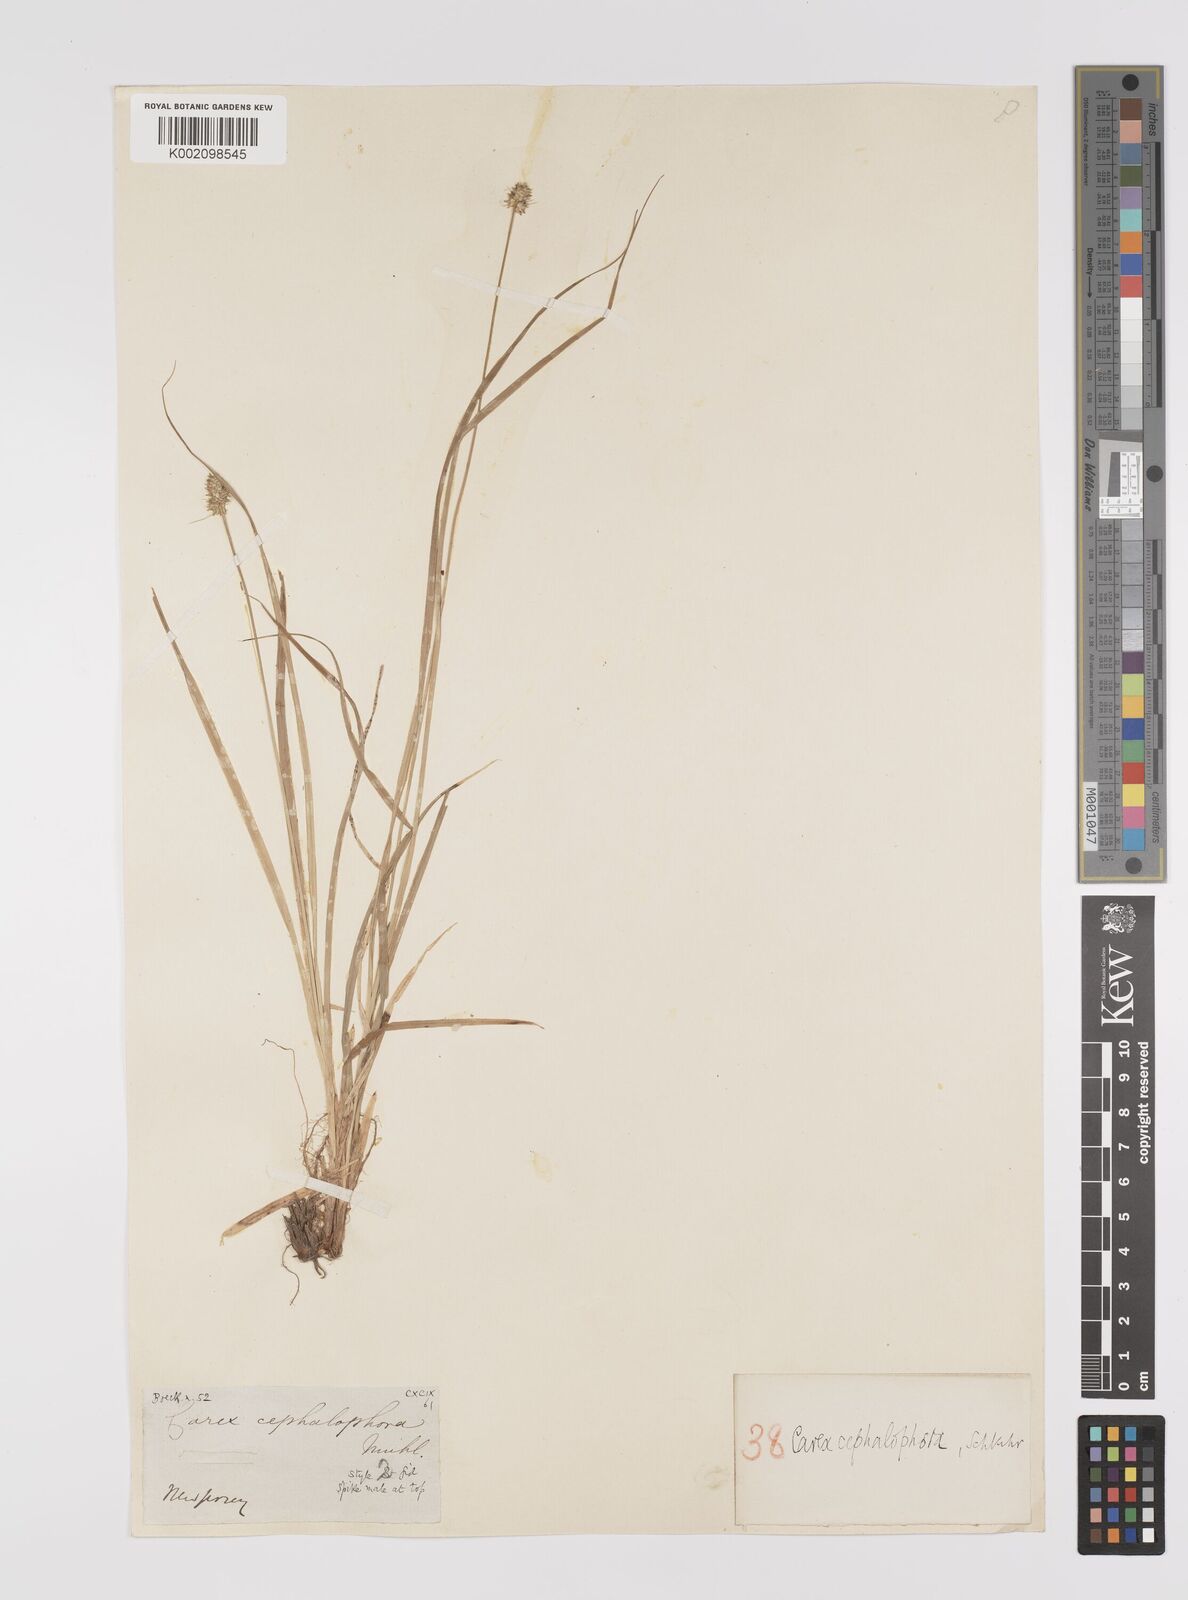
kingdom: Plantae
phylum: Tracheophyta
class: Liliopsida
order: Poales
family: Cyperaceae
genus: Carex
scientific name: Carex cephalophora
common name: Oval-headed sedge
